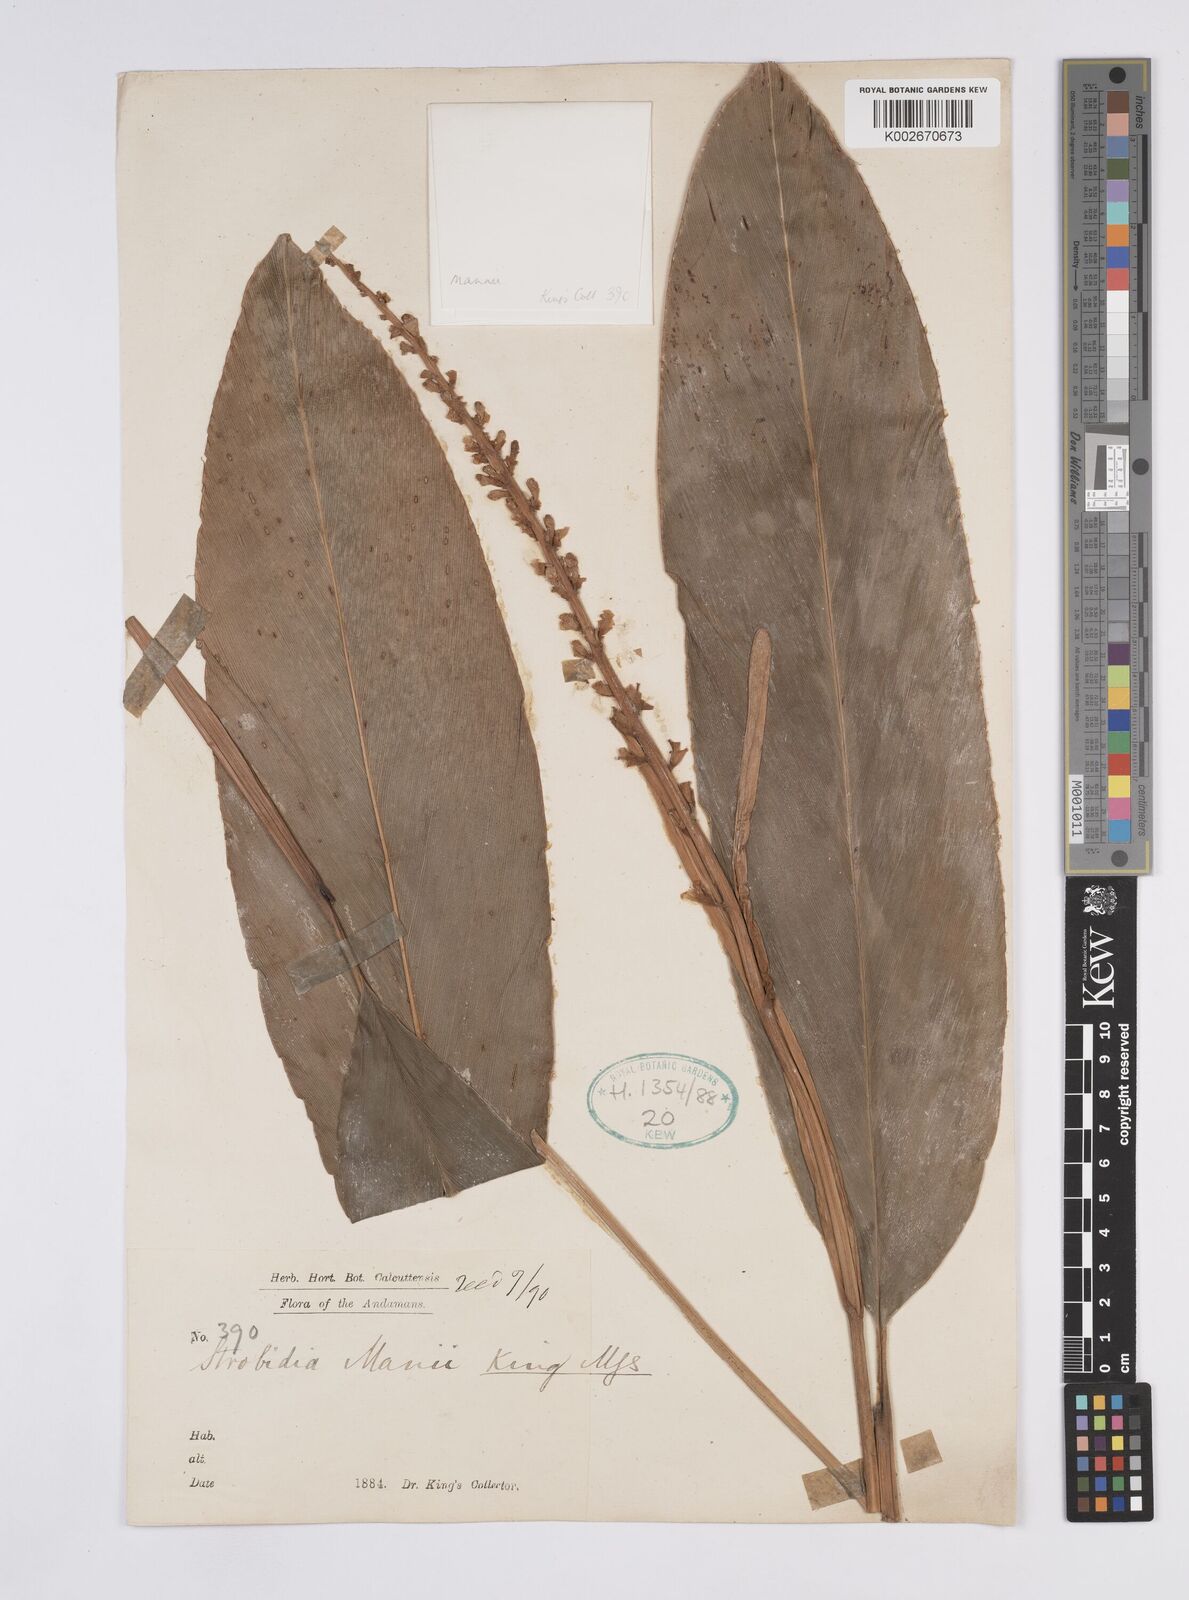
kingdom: Plantae
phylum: Tracheophyta
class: Liliopsida
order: Zingiberales
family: Zingiberaceae
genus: Alpinia
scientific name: Alpinia manii
